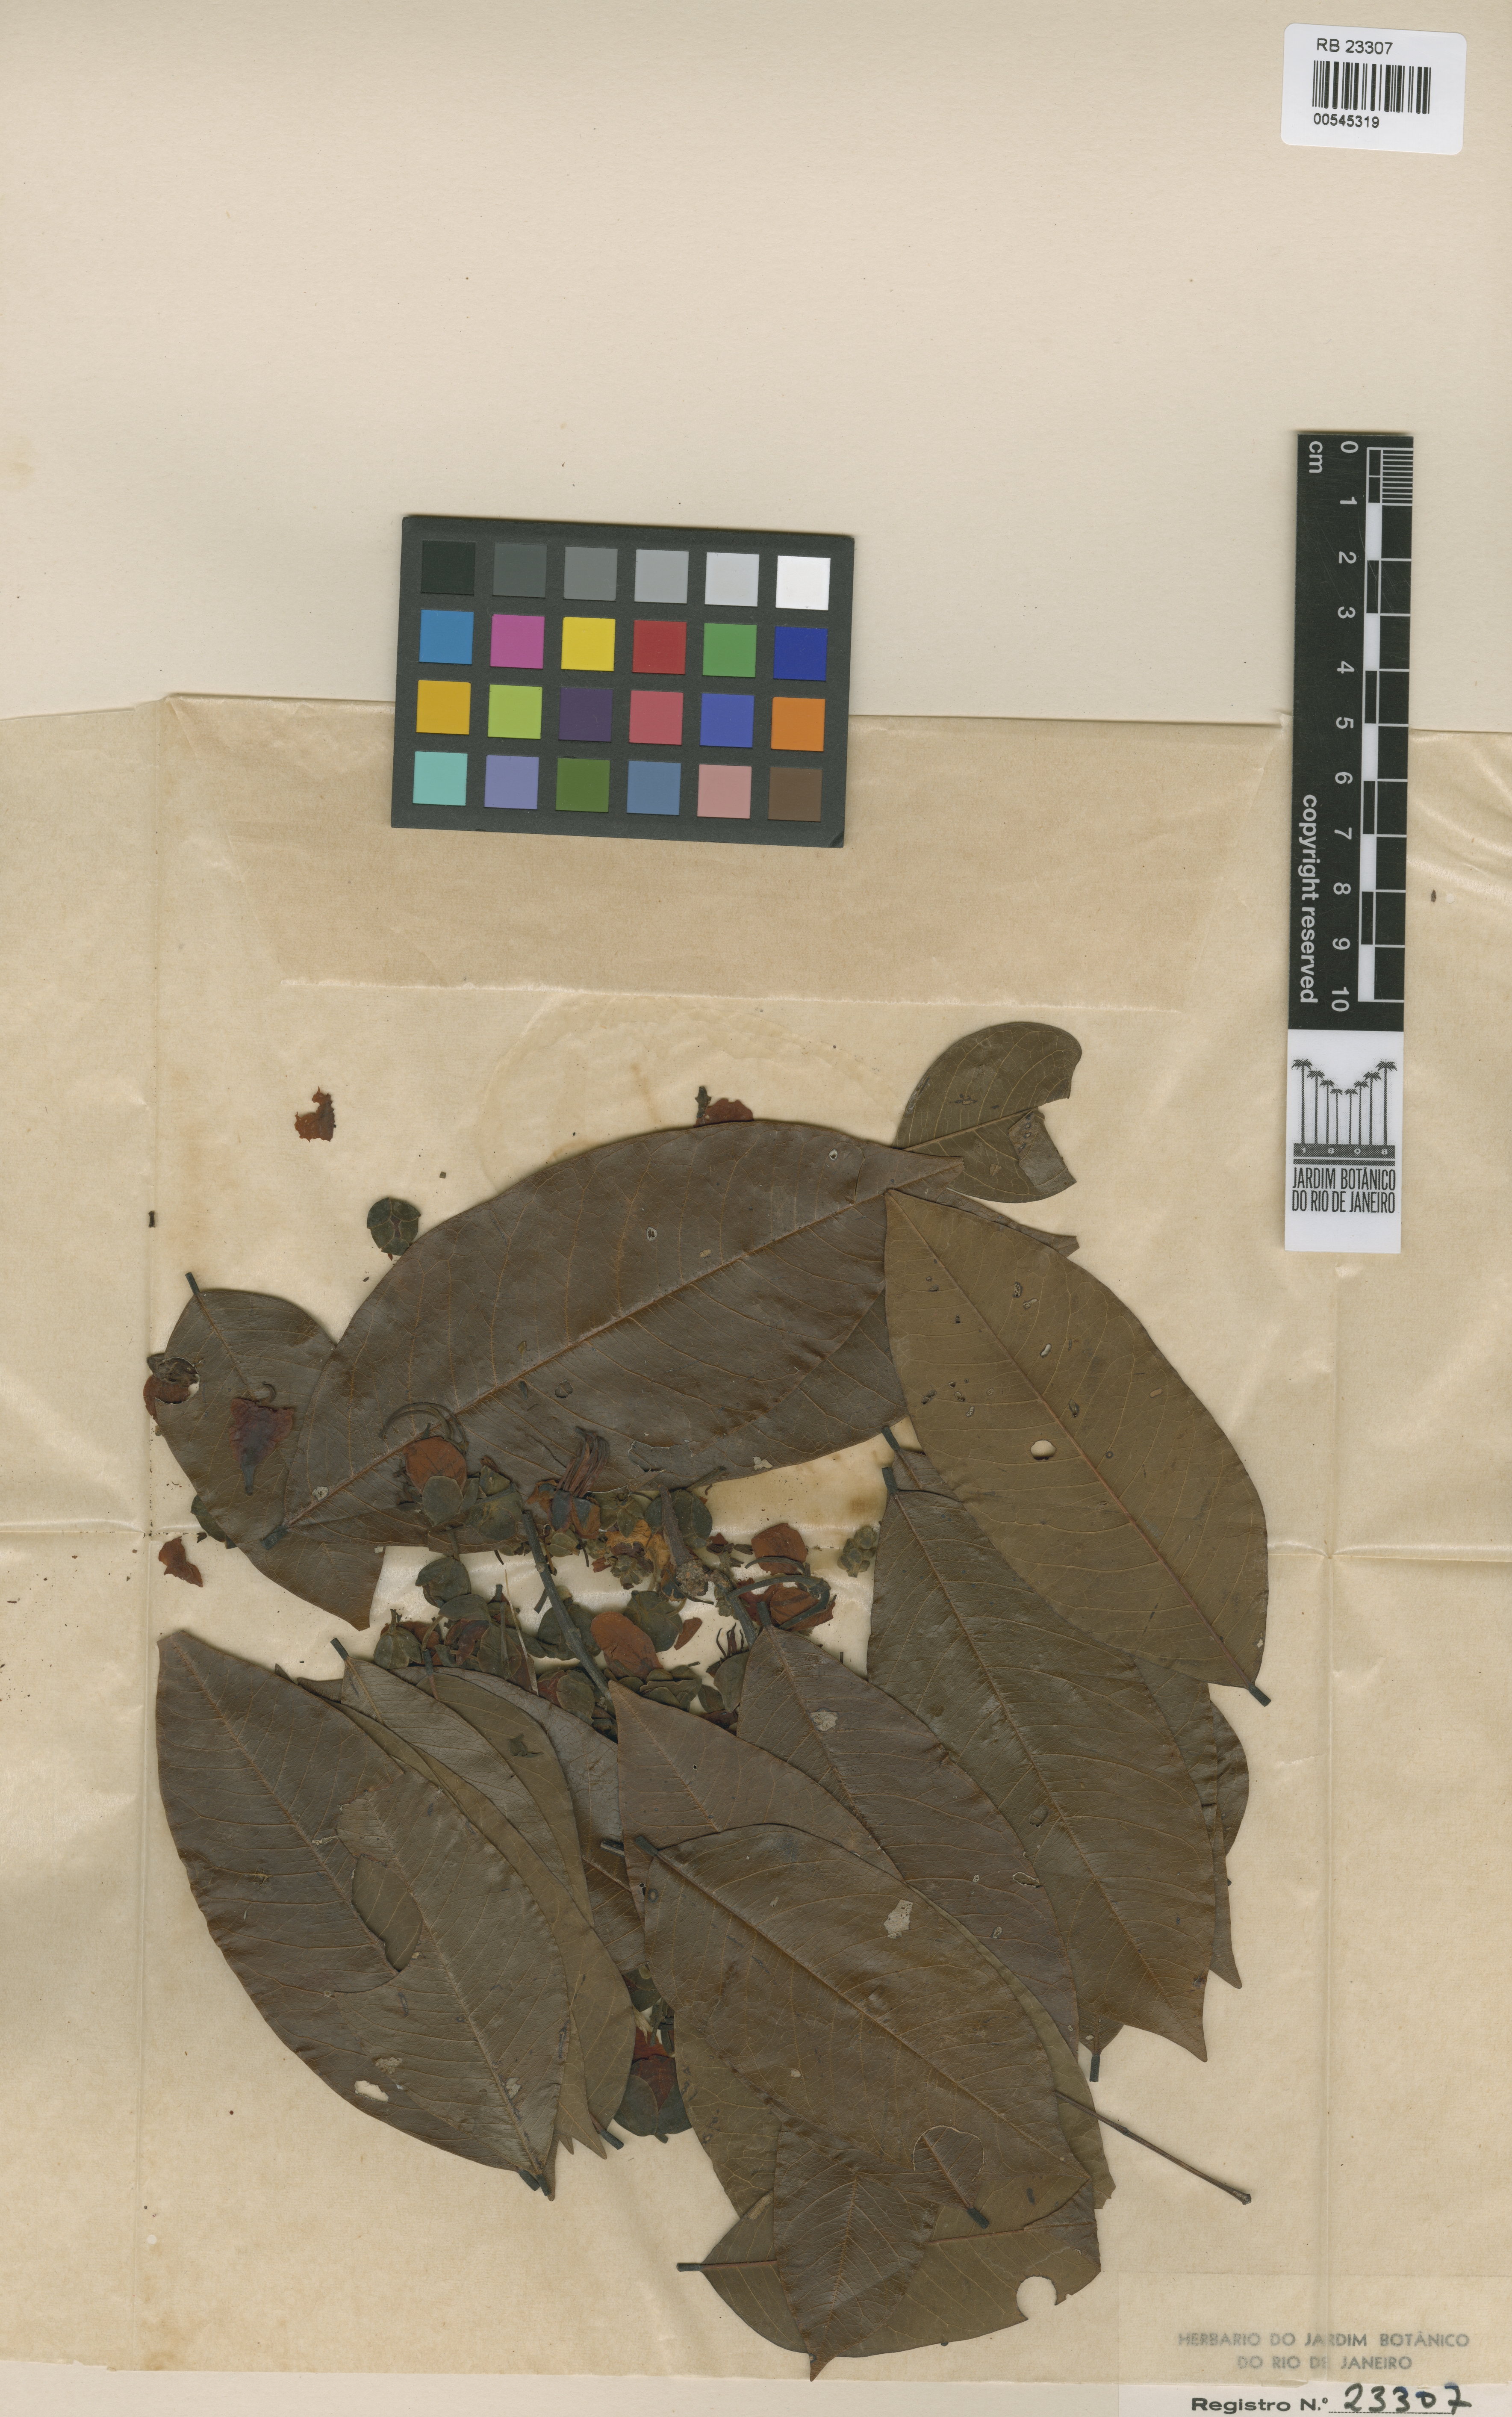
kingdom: Plantae
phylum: Tracheophyta
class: Magnoliopsida
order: Fabales
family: Fabaceae
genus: Cassia
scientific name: Cassia swartzioides
